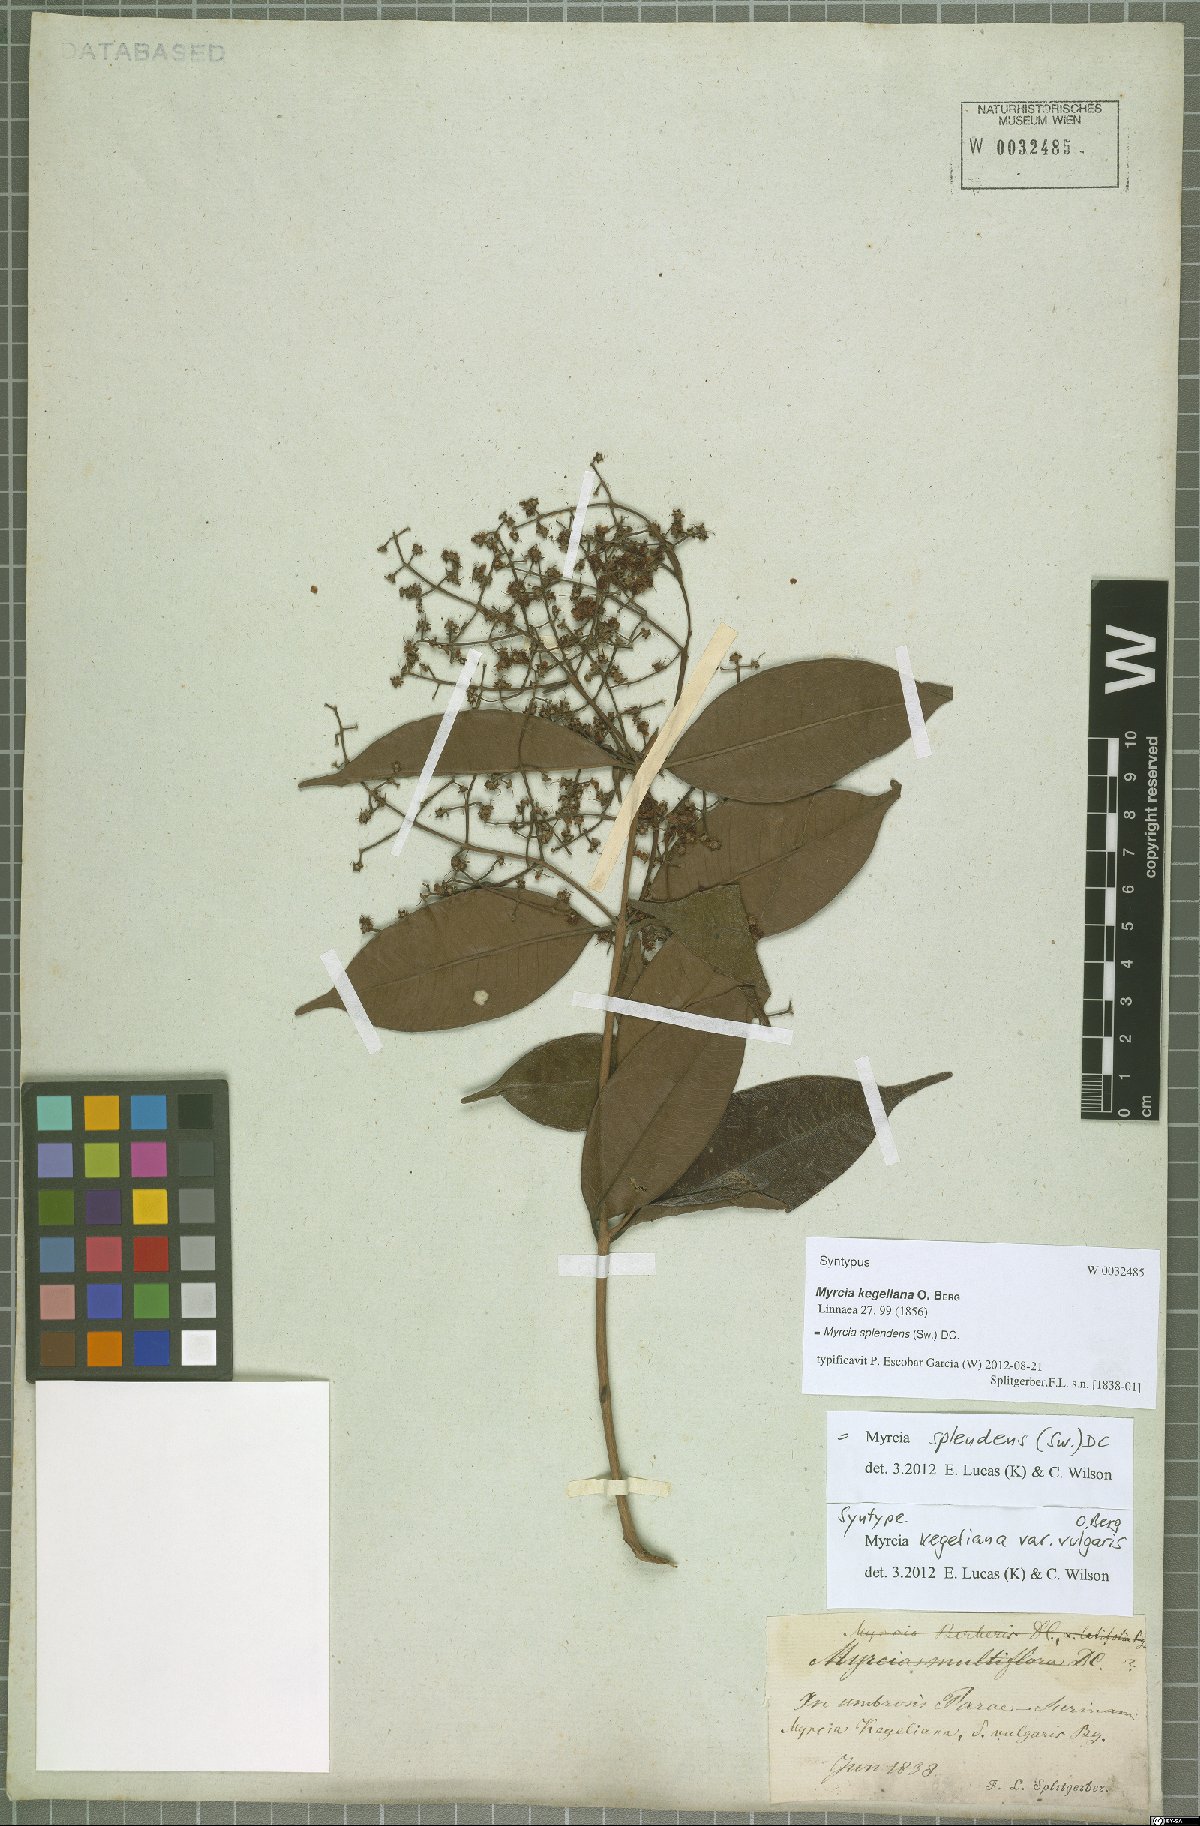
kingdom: Plantae
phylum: Tracheophyta
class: Magnoliopsida
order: Myrtales
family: Myrtaceae
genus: Myrcia
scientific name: Myrcia splendens
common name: Surinam cherry
